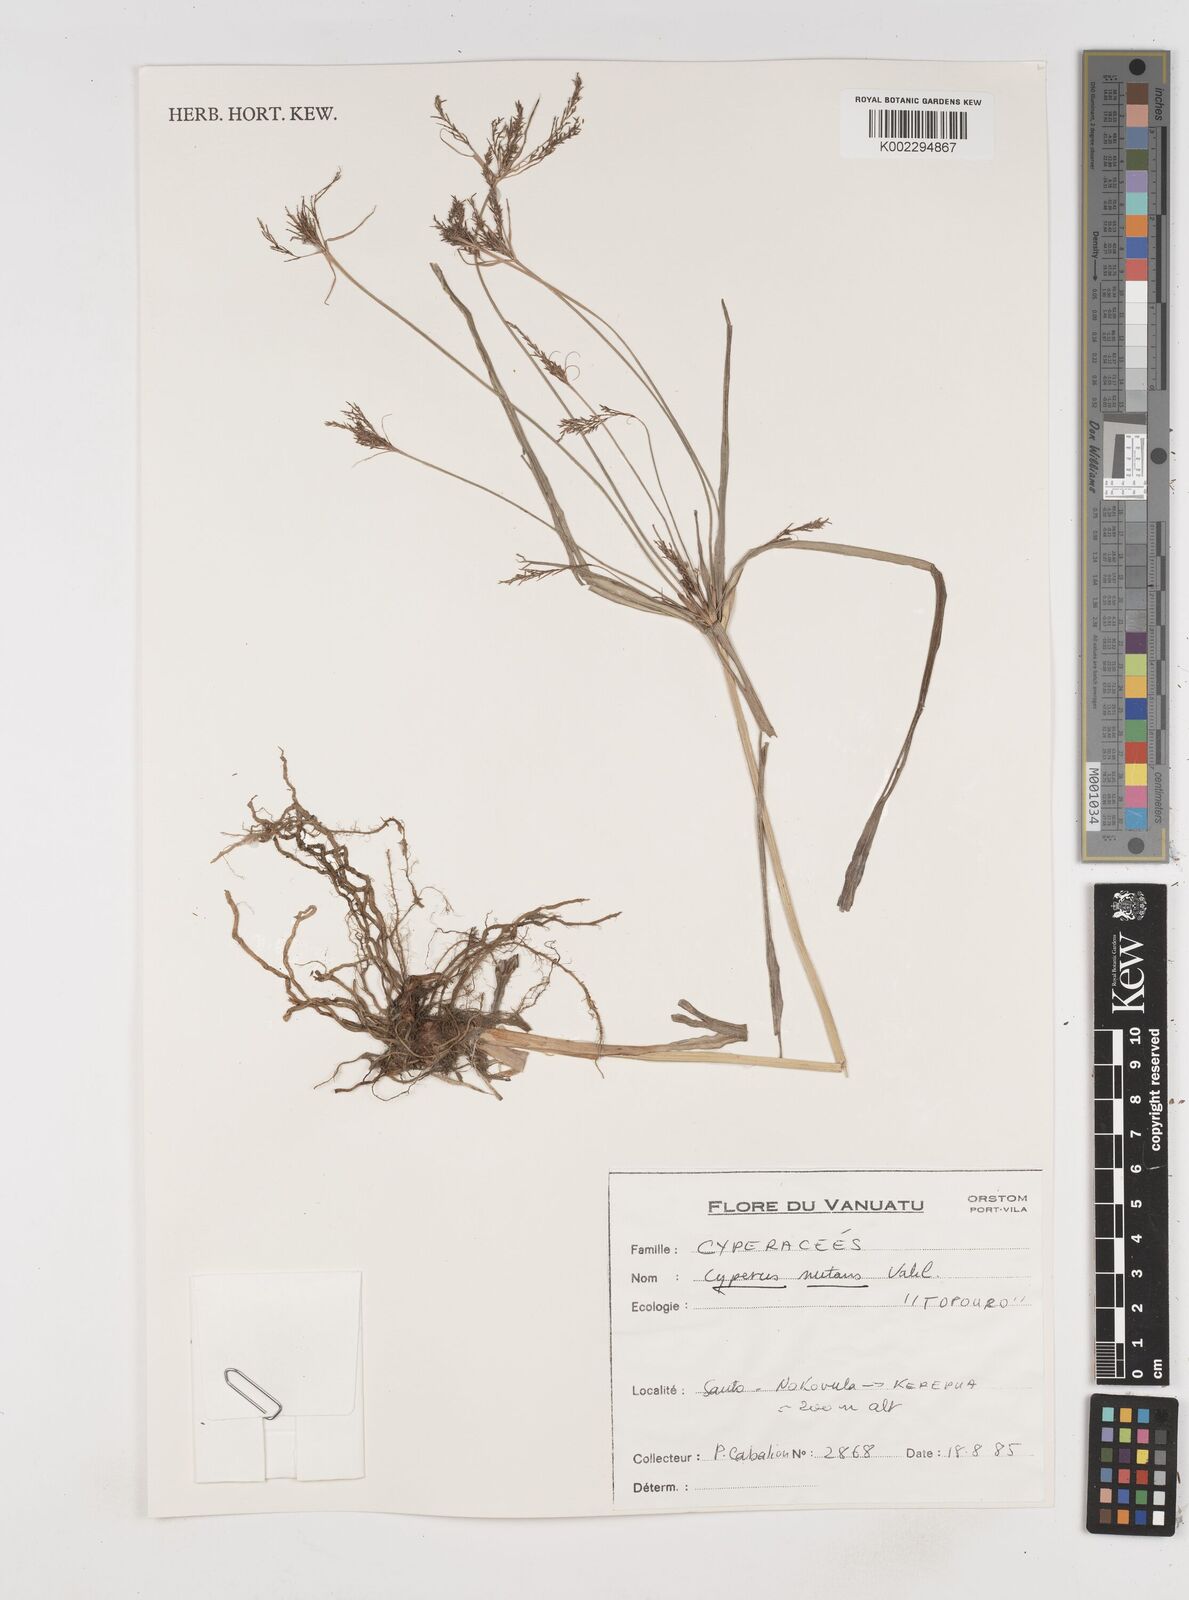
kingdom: Plantae
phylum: Tracheophyta
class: Liliopsida
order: Poales
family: Cyperaceae
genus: Cyperus
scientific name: Cyperus nutans
